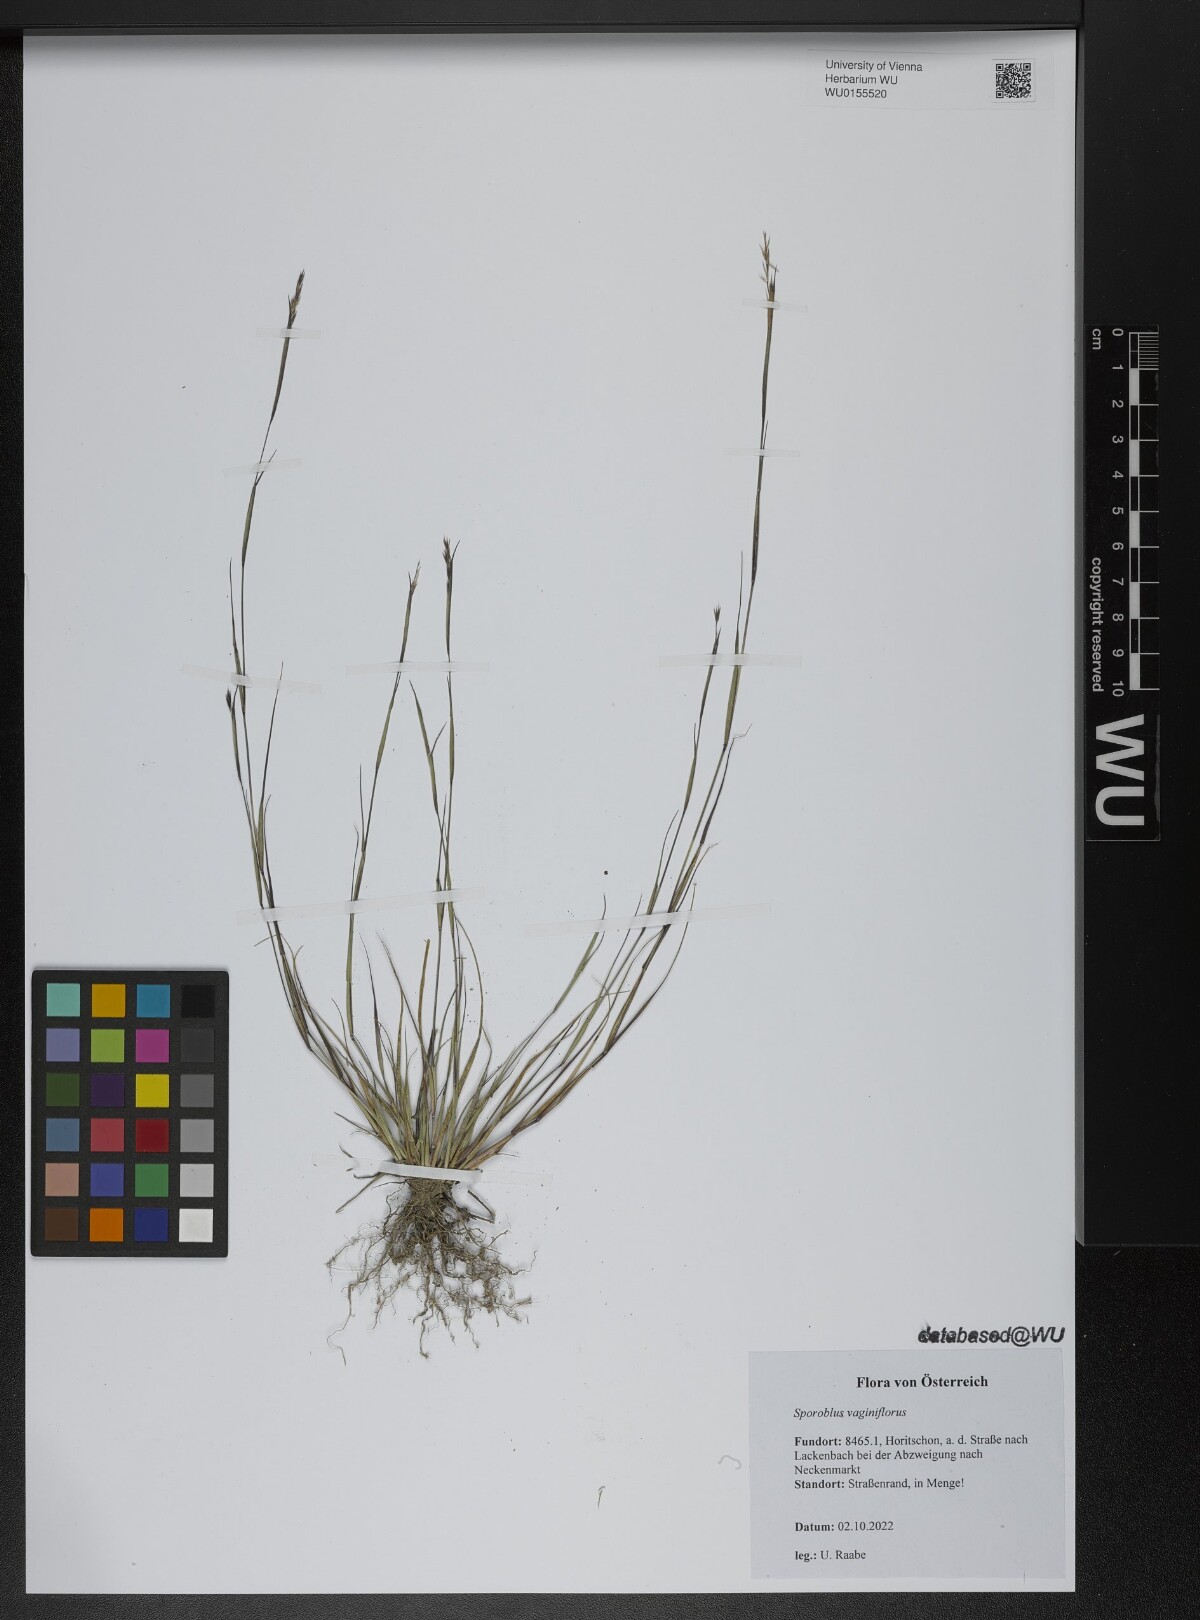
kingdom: Plantae
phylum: Tracheophyta
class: Liliopsida
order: Poales
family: Poaceae
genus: Sporobolus
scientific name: Sporobolus vaginiflorus
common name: Poverty dropseed
